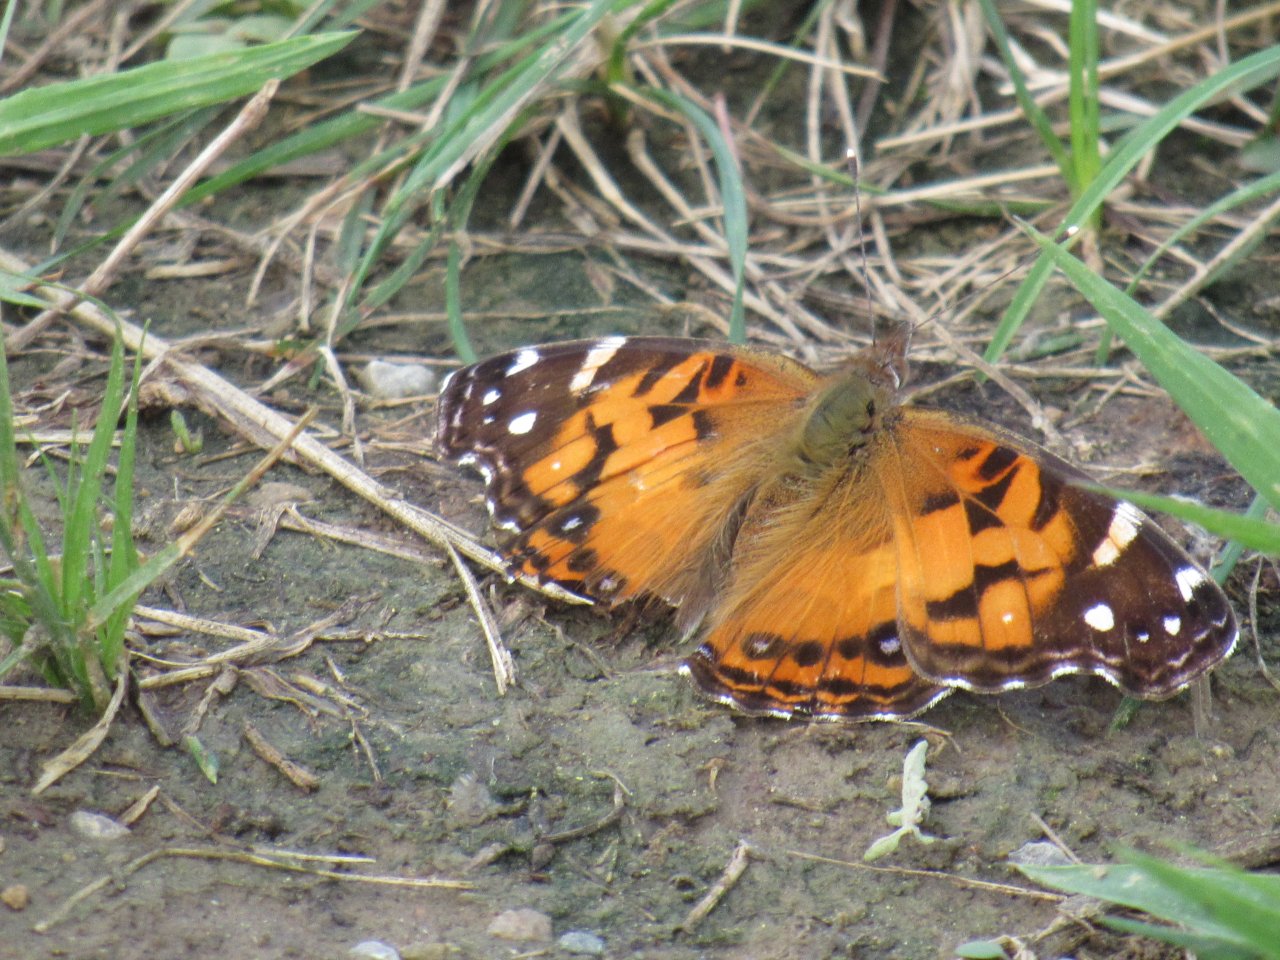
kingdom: Animalia
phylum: Arthropoda
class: Insecta
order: Lepidoptera
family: Nymphalidae
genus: Vanessa
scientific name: Vanessa virginiensis
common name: American Lady
